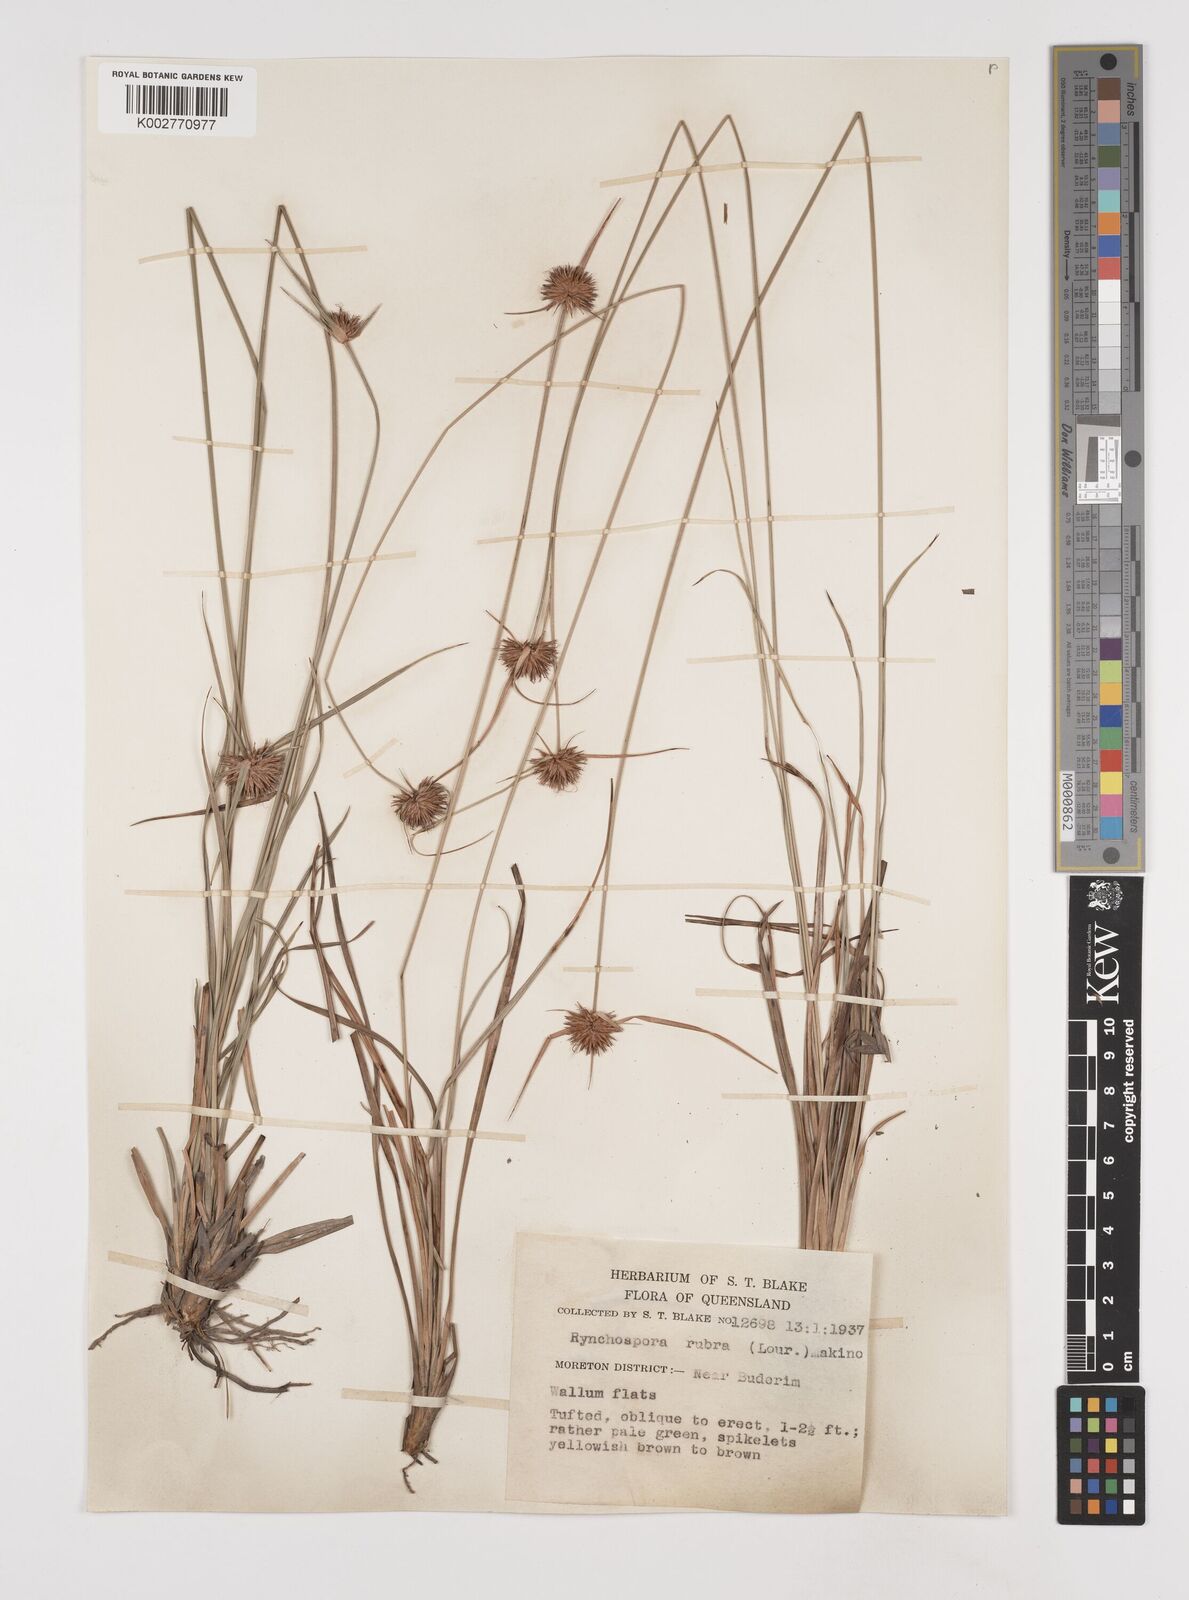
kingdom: Plantae
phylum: Tracheophyta
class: Liliopsida
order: Poales
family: Cyperaceae
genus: Rhynchospora
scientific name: Rhynchospora rubra
